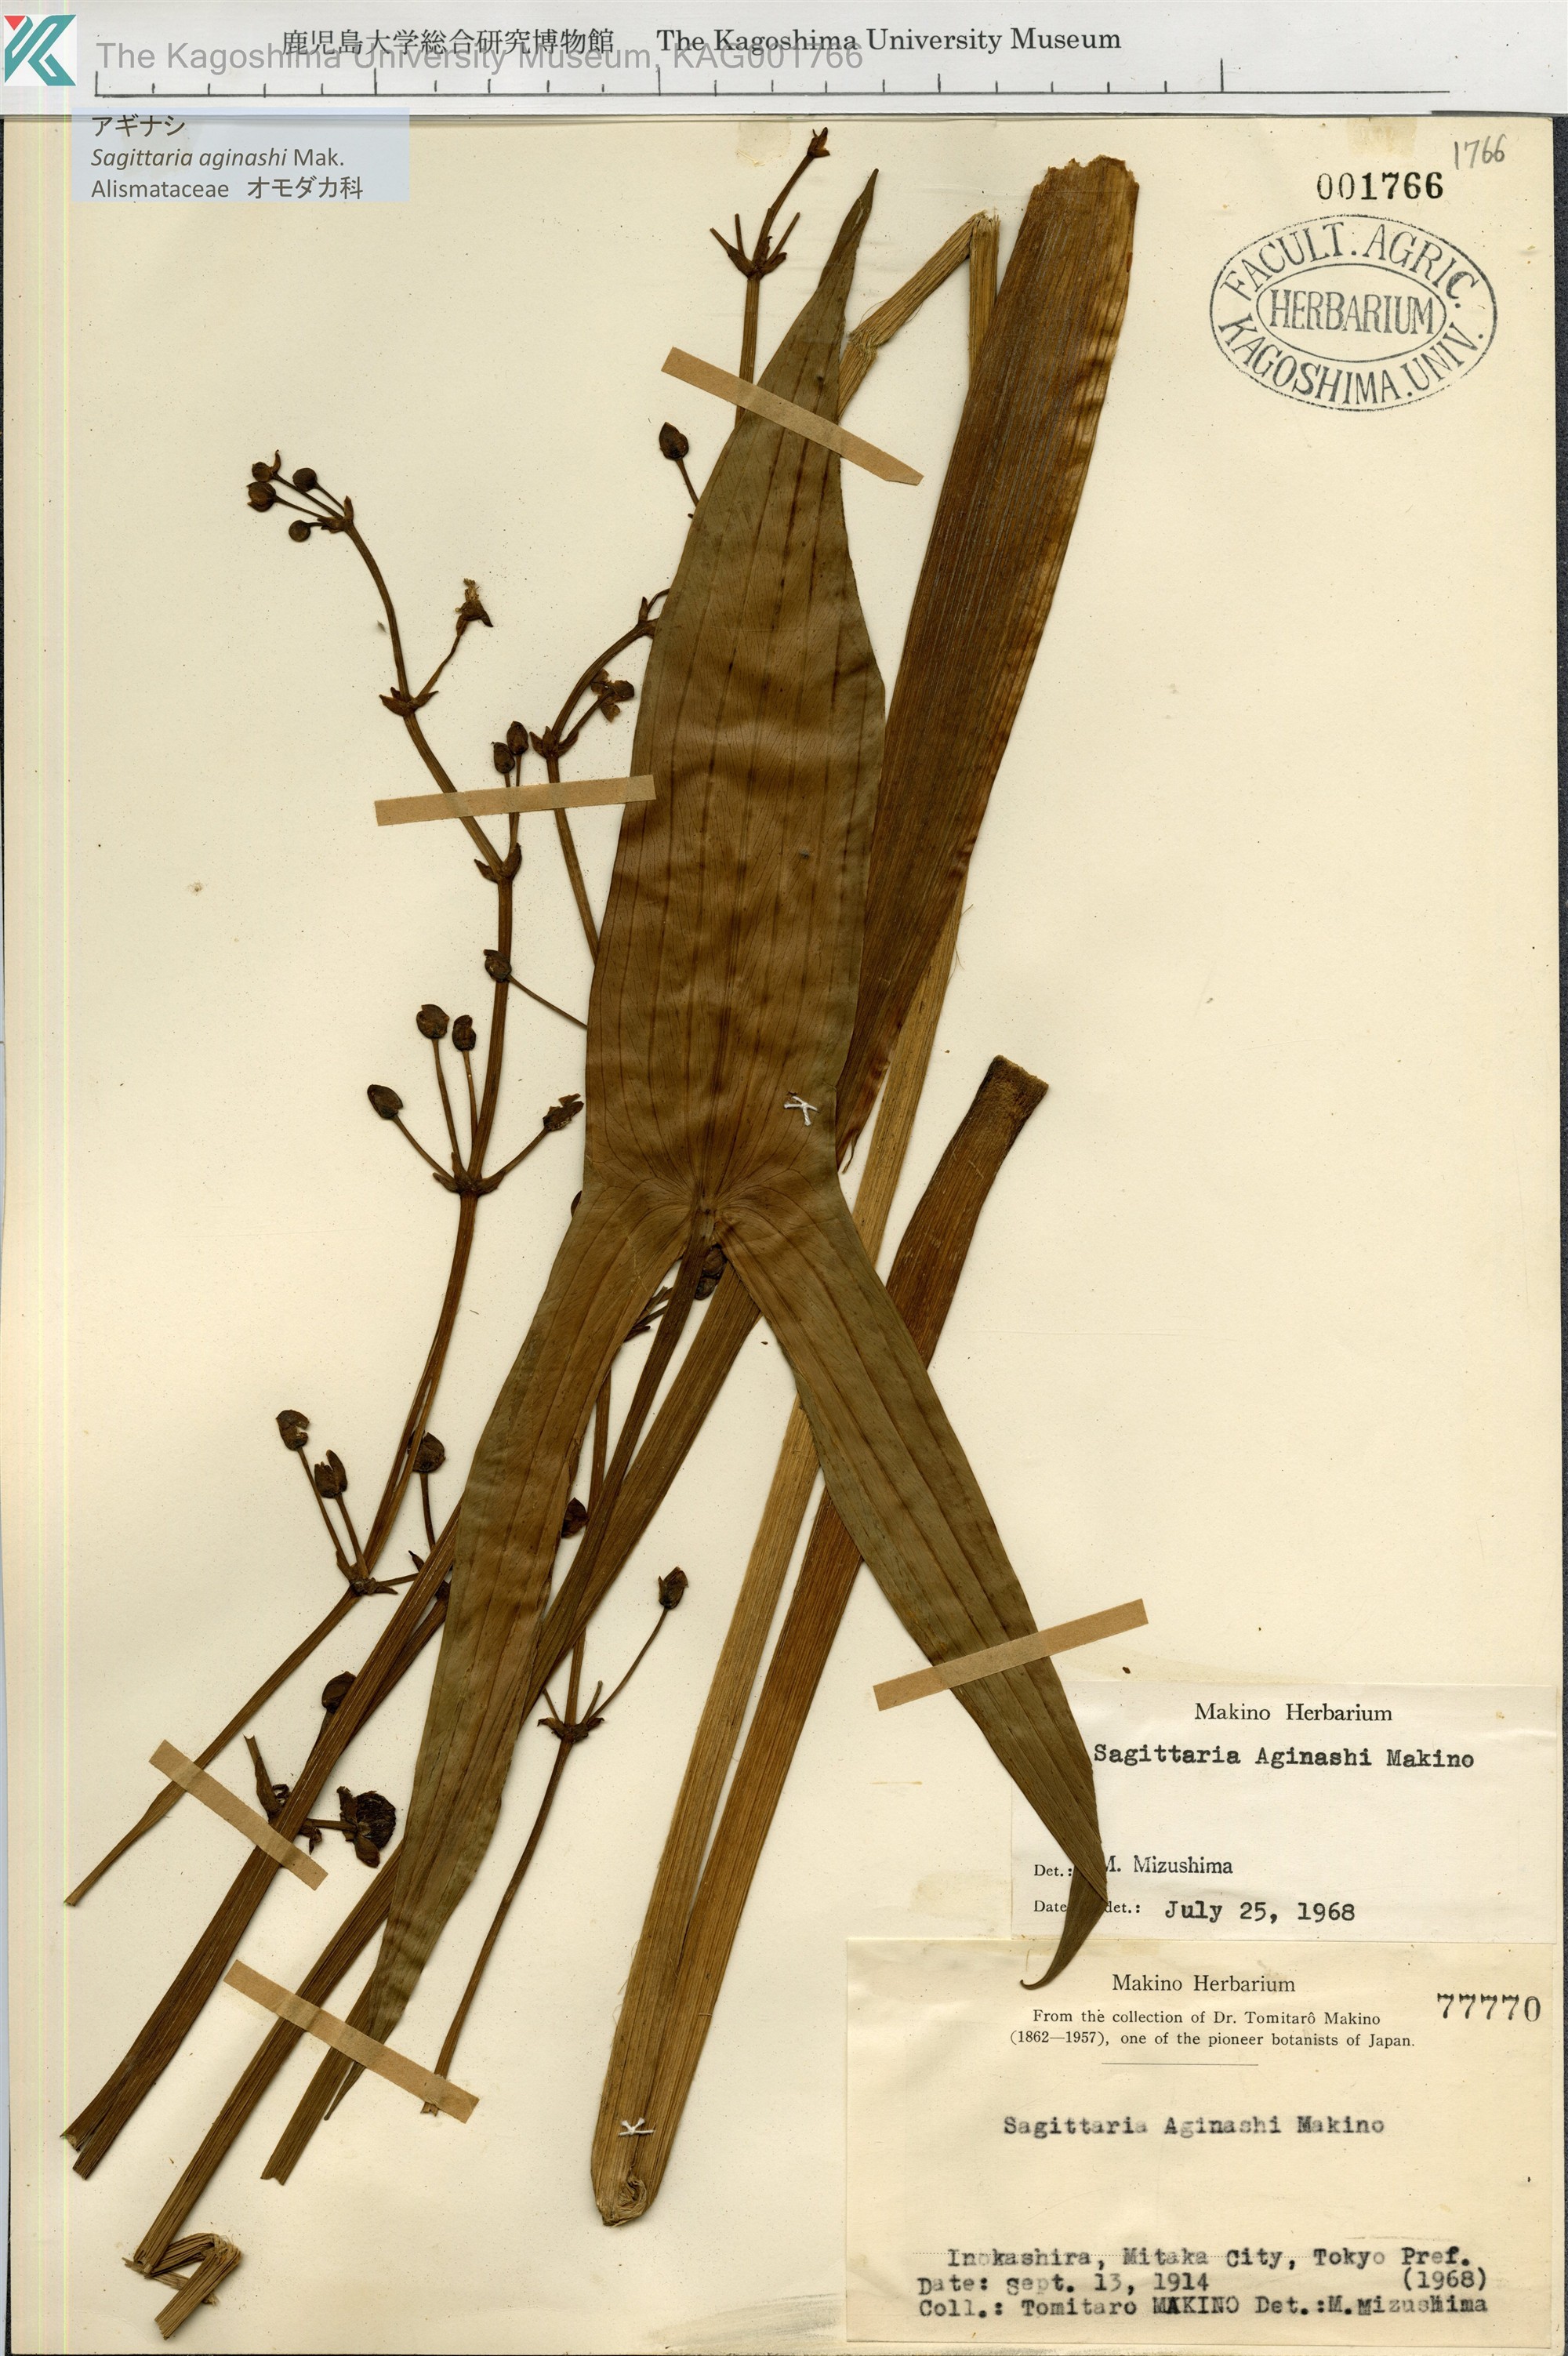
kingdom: Plantae
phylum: Tracheophyta
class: Liliopsida
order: Alismatales
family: Alismataceae
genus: Sagittaria
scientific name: Sagittaria aginashi
